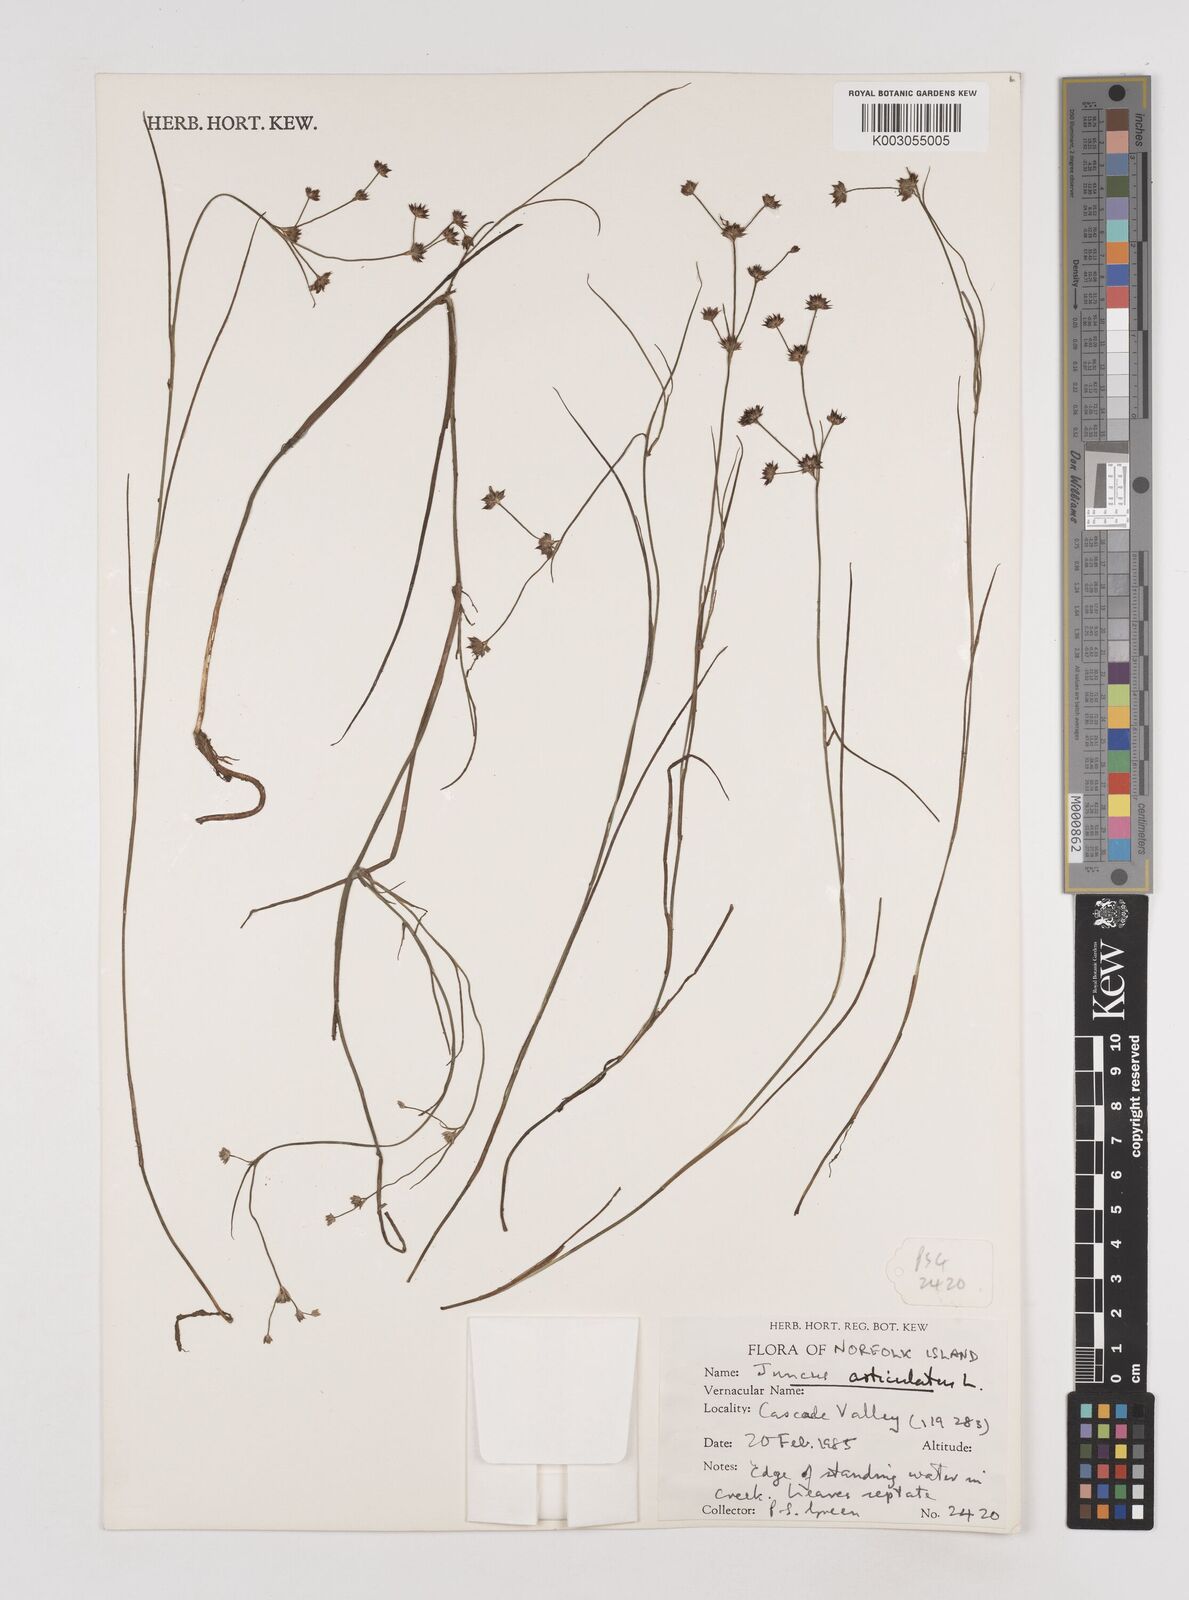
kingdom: Plantae
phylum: Tracheophyta
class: Liliopsida
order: Poales
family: Juncaceae
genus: Juncus
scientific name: Juncus articulatus
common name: Jointed rush
